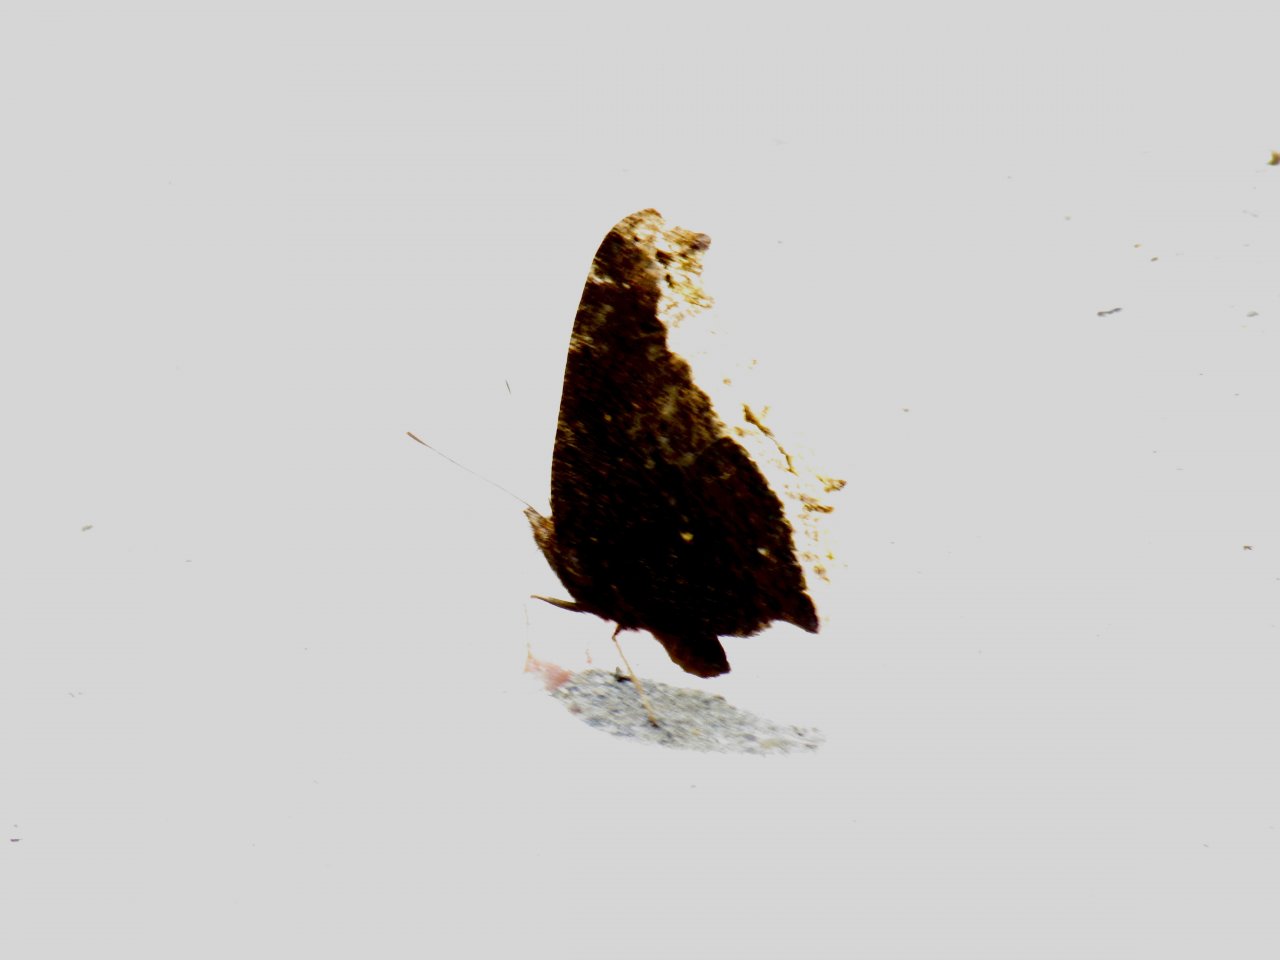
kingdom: Animalia
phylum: Arthropoda
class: Insecta
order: Lepidoptera
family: Nymphalidae
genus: Nymphalis
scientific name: Nymphalis antiopa
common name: Mourning Cloak
